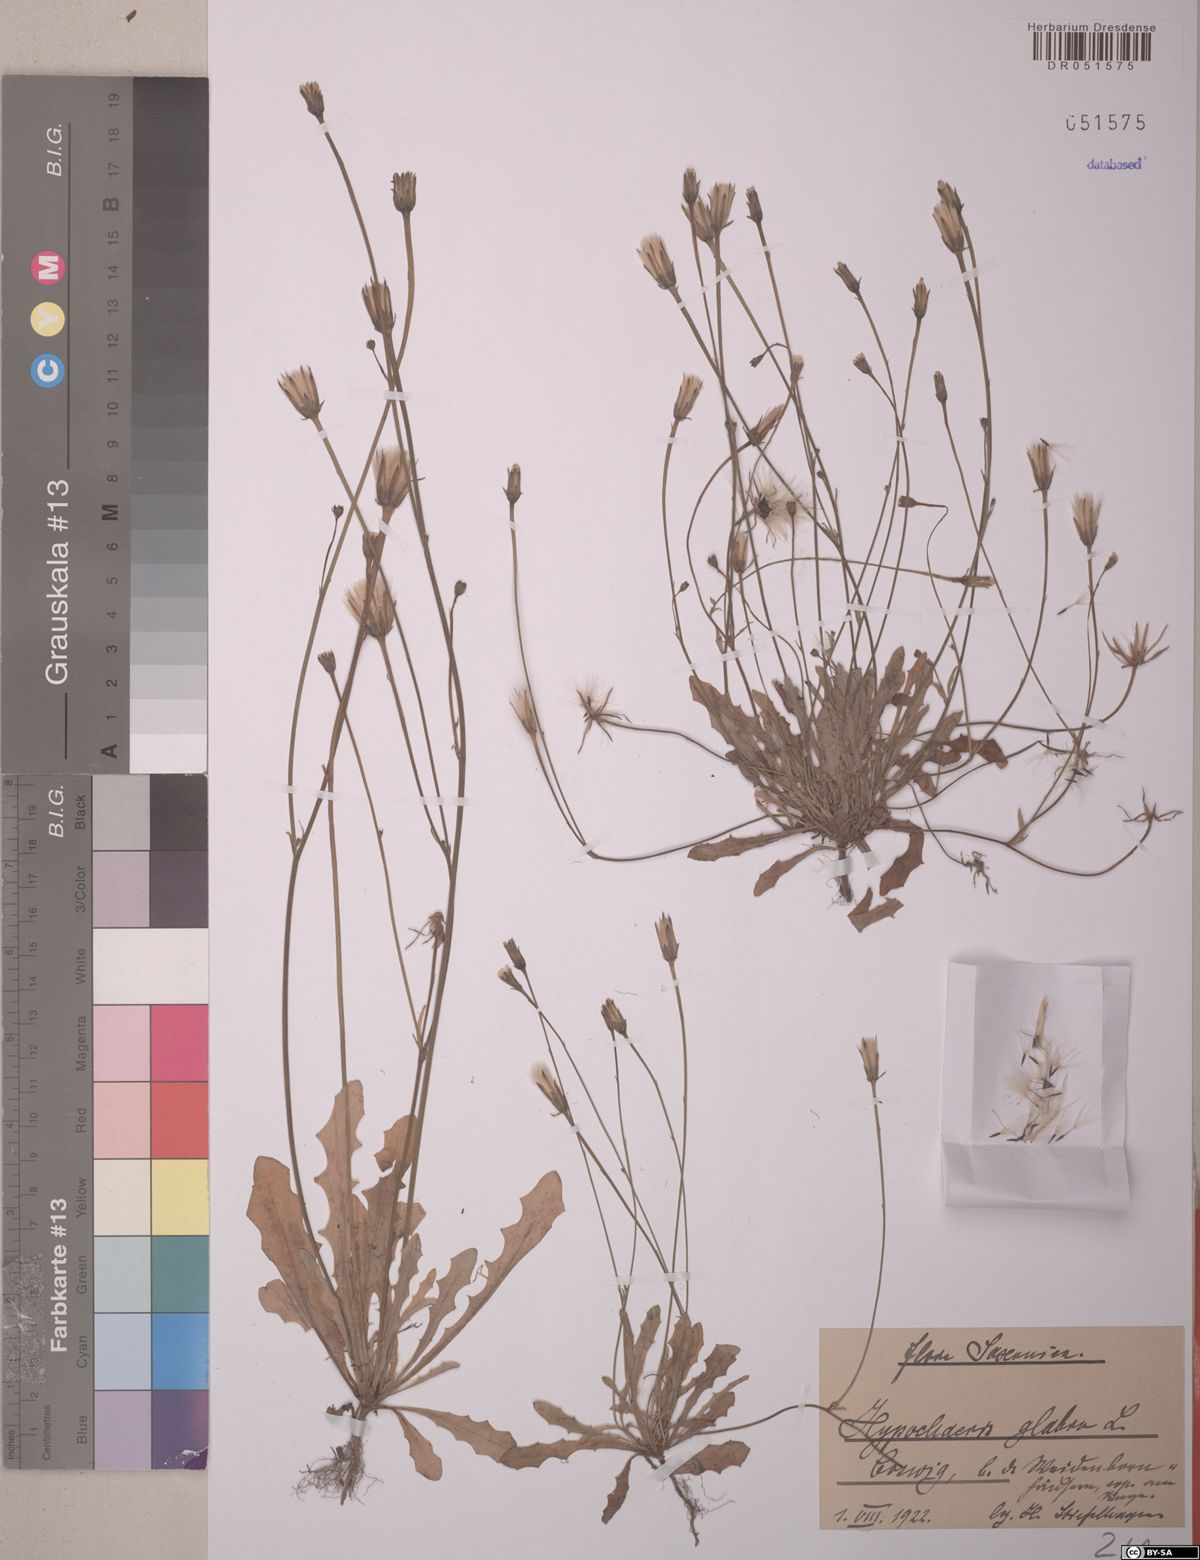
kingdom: Plantae
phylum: Tracheophyta
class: Magnoliopsida
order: Asterales
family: Asteraceae
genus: Hypochaeris
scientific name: Hypochaeris glabra
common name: Smooth catsear
